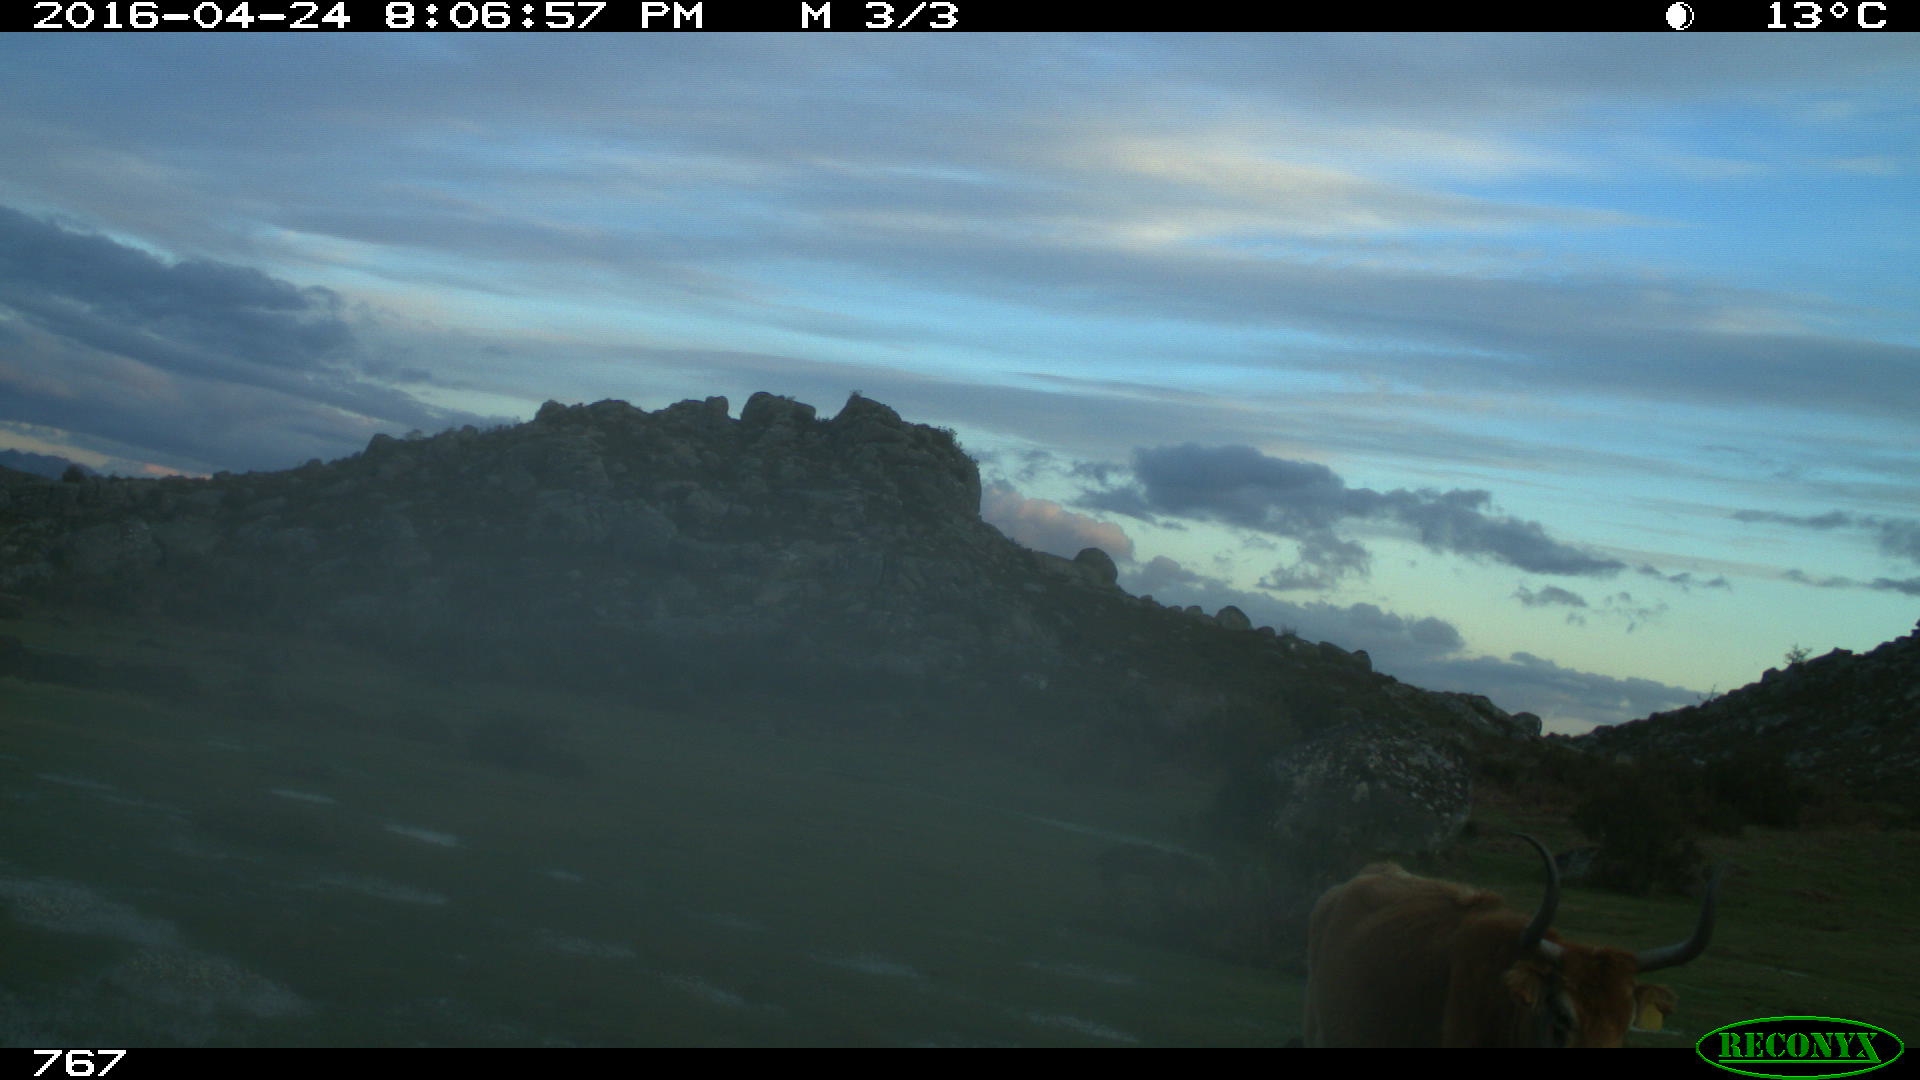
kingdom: Animalia
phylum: Chordata
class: Mammalia
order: Artiodactyla
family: Bovidae
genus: Bos
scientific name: Bos taurus
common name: Domesticated cattle
